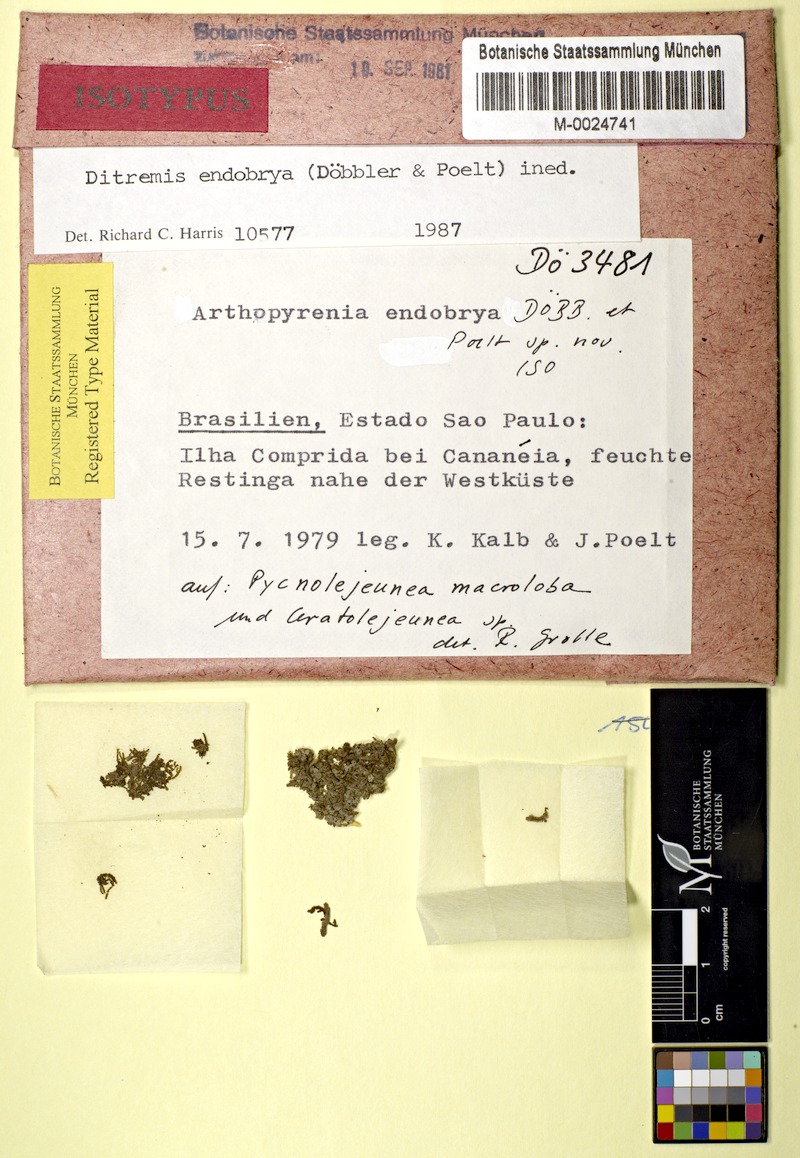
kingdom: Fungi
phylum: Ascomycota
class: Dothideomycetes
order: Monoblastiales
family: Monoblastiaceae
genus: Acrocordia
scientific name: Acrocordia endobrya
